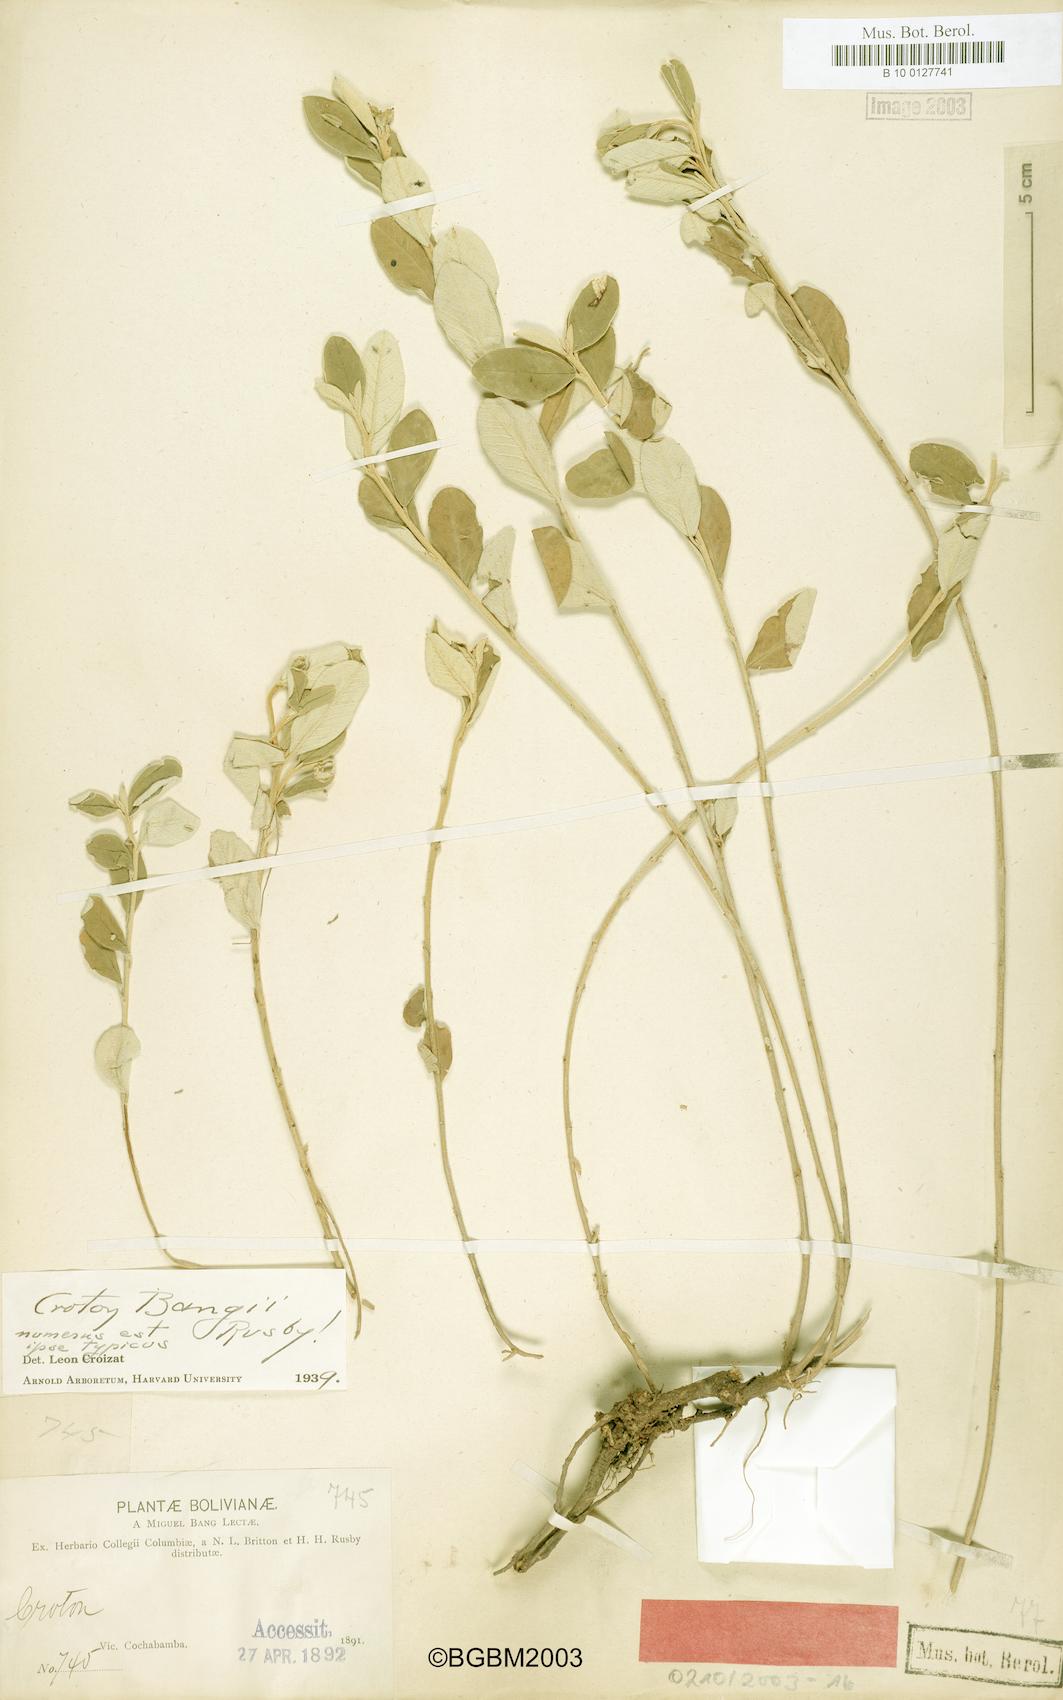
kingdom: Plantae
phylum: Tracheophyta
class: Magnoliopsida
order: Malpighiales
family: Euphorbiaceae
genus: Croton
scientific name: Croton bangii
